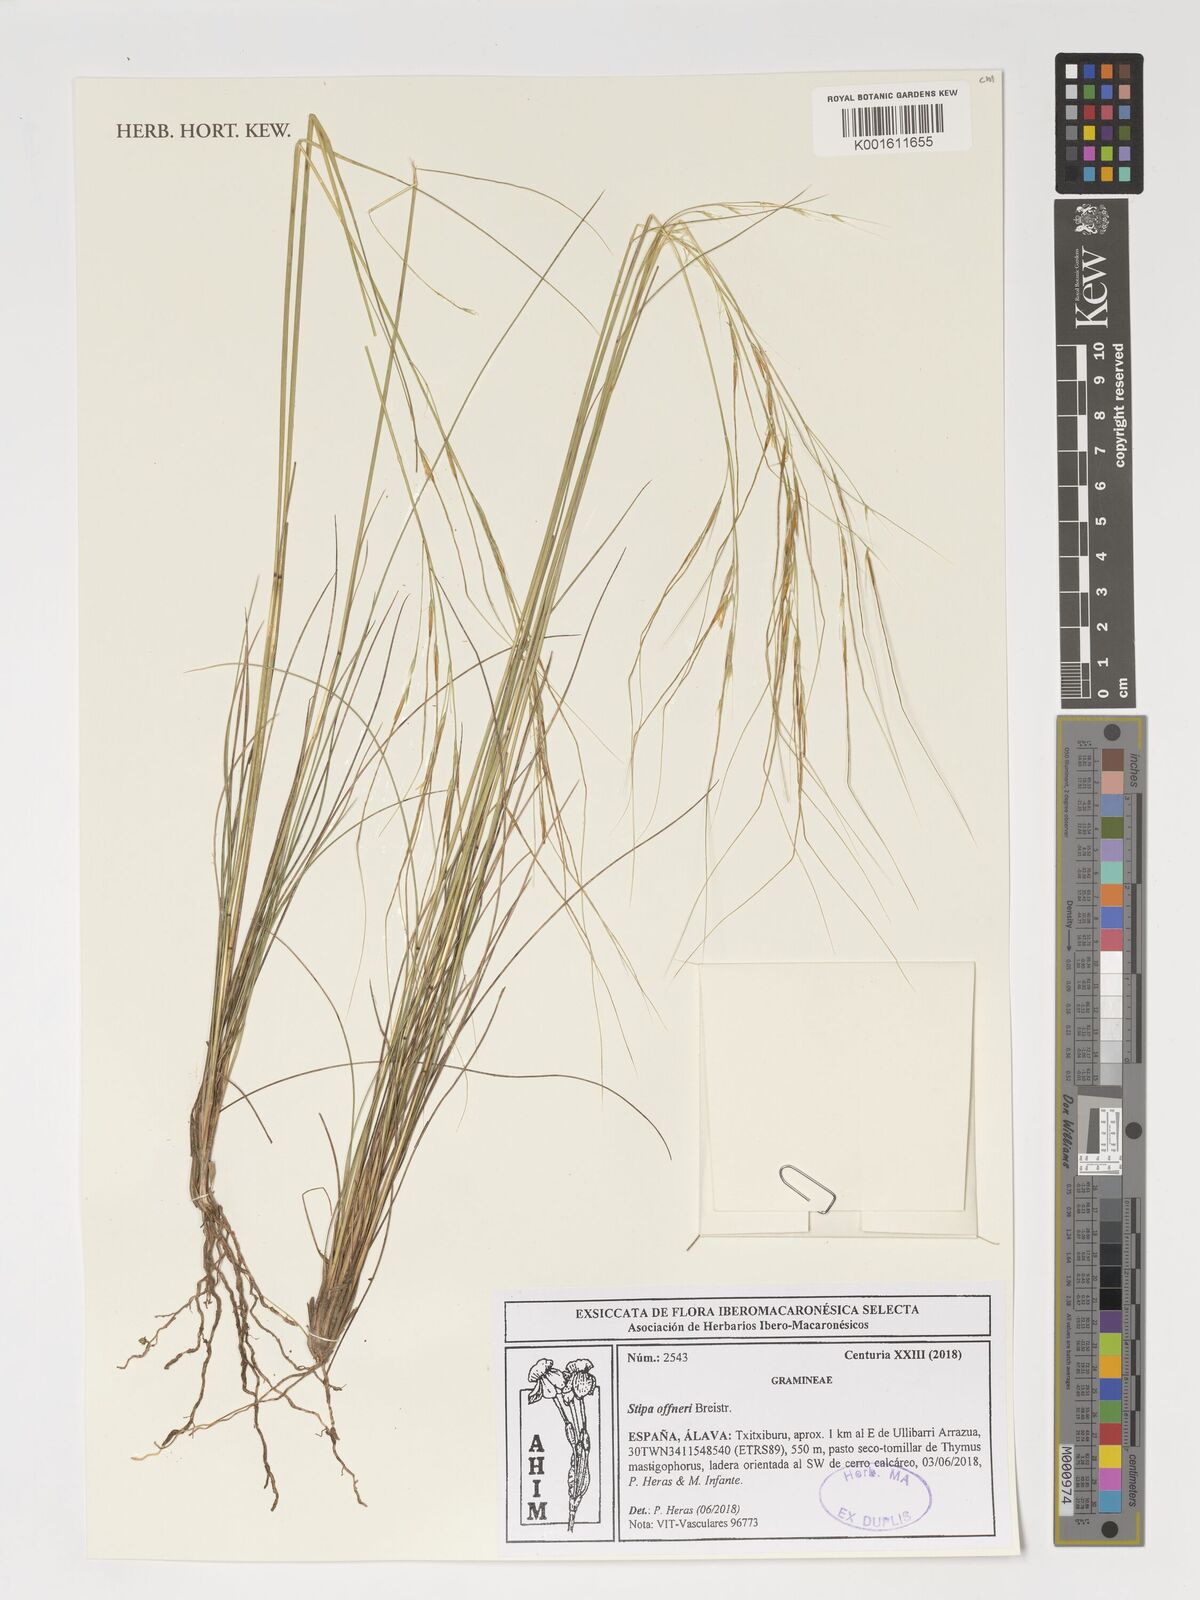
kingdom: Plantae
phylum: Tracheophyta
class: Liliopsida
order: Poales
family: Poaceae
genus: Stipa
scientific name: Stipa offneri
